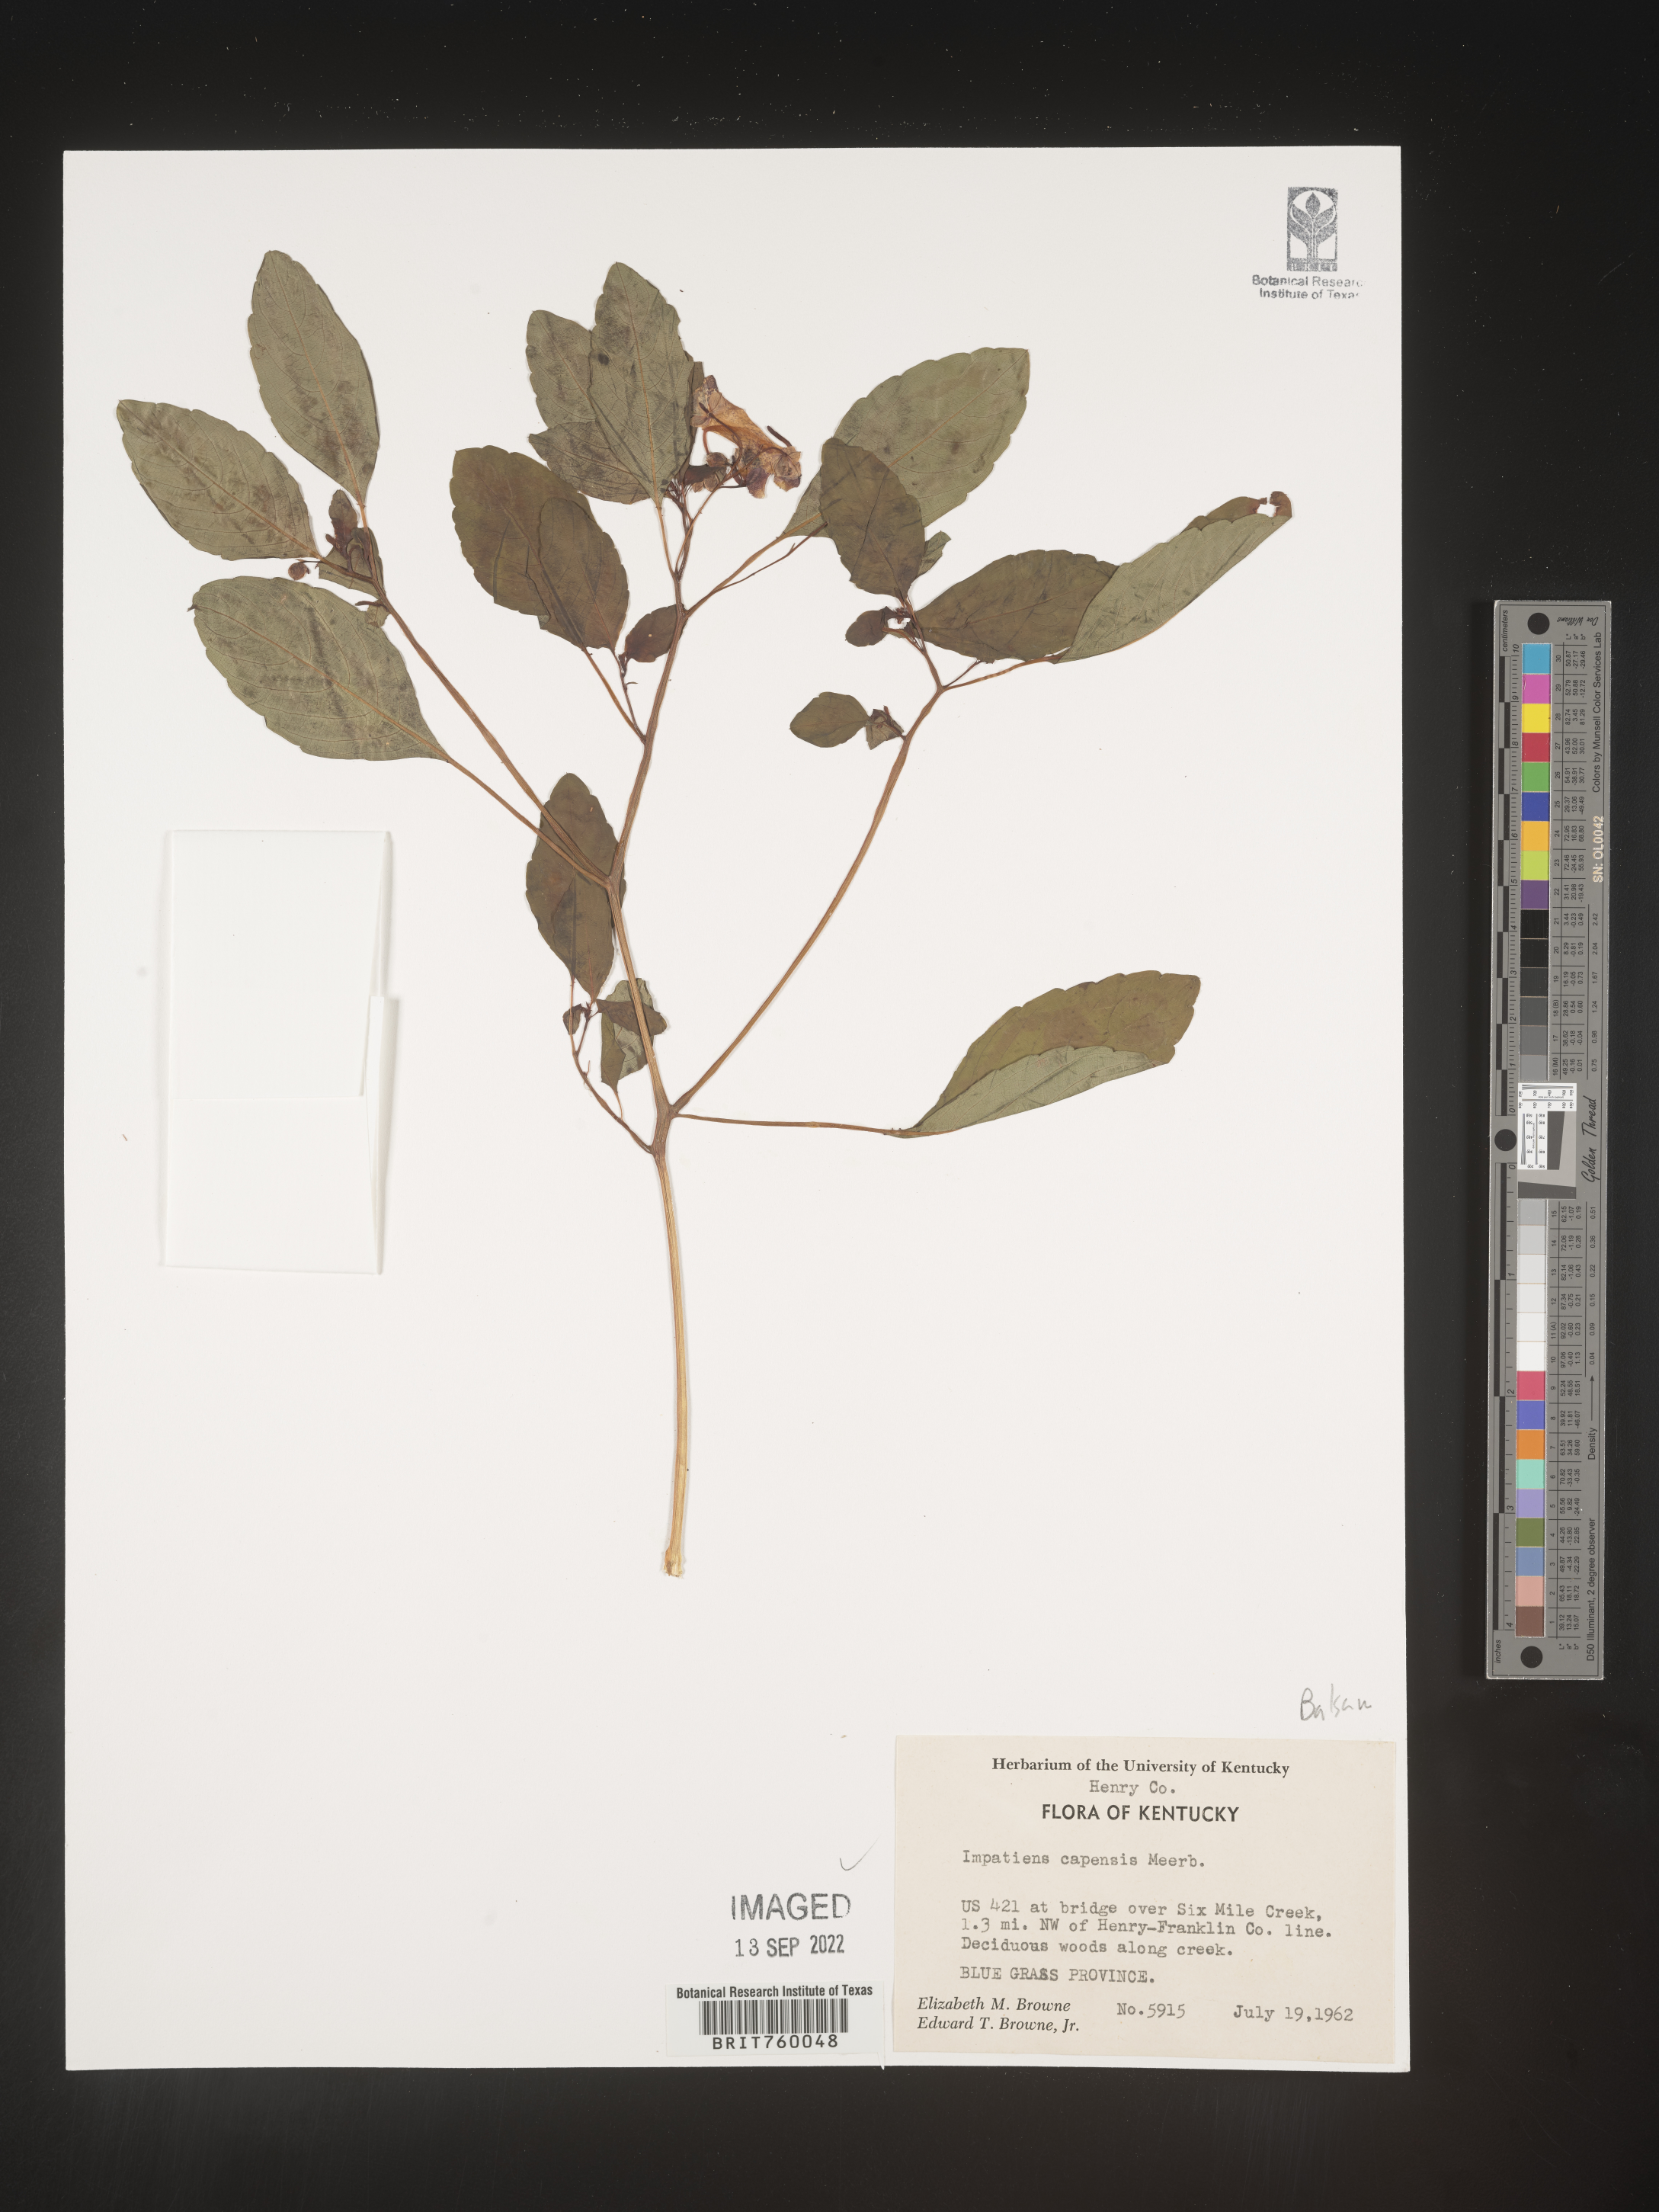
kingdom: Plantae
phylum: Tracheophyta
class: Magnoliopsida
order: Ericales
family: Balsaminaceae
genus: Impatiens
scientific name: Impatiens capensis
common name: Orange balsam
